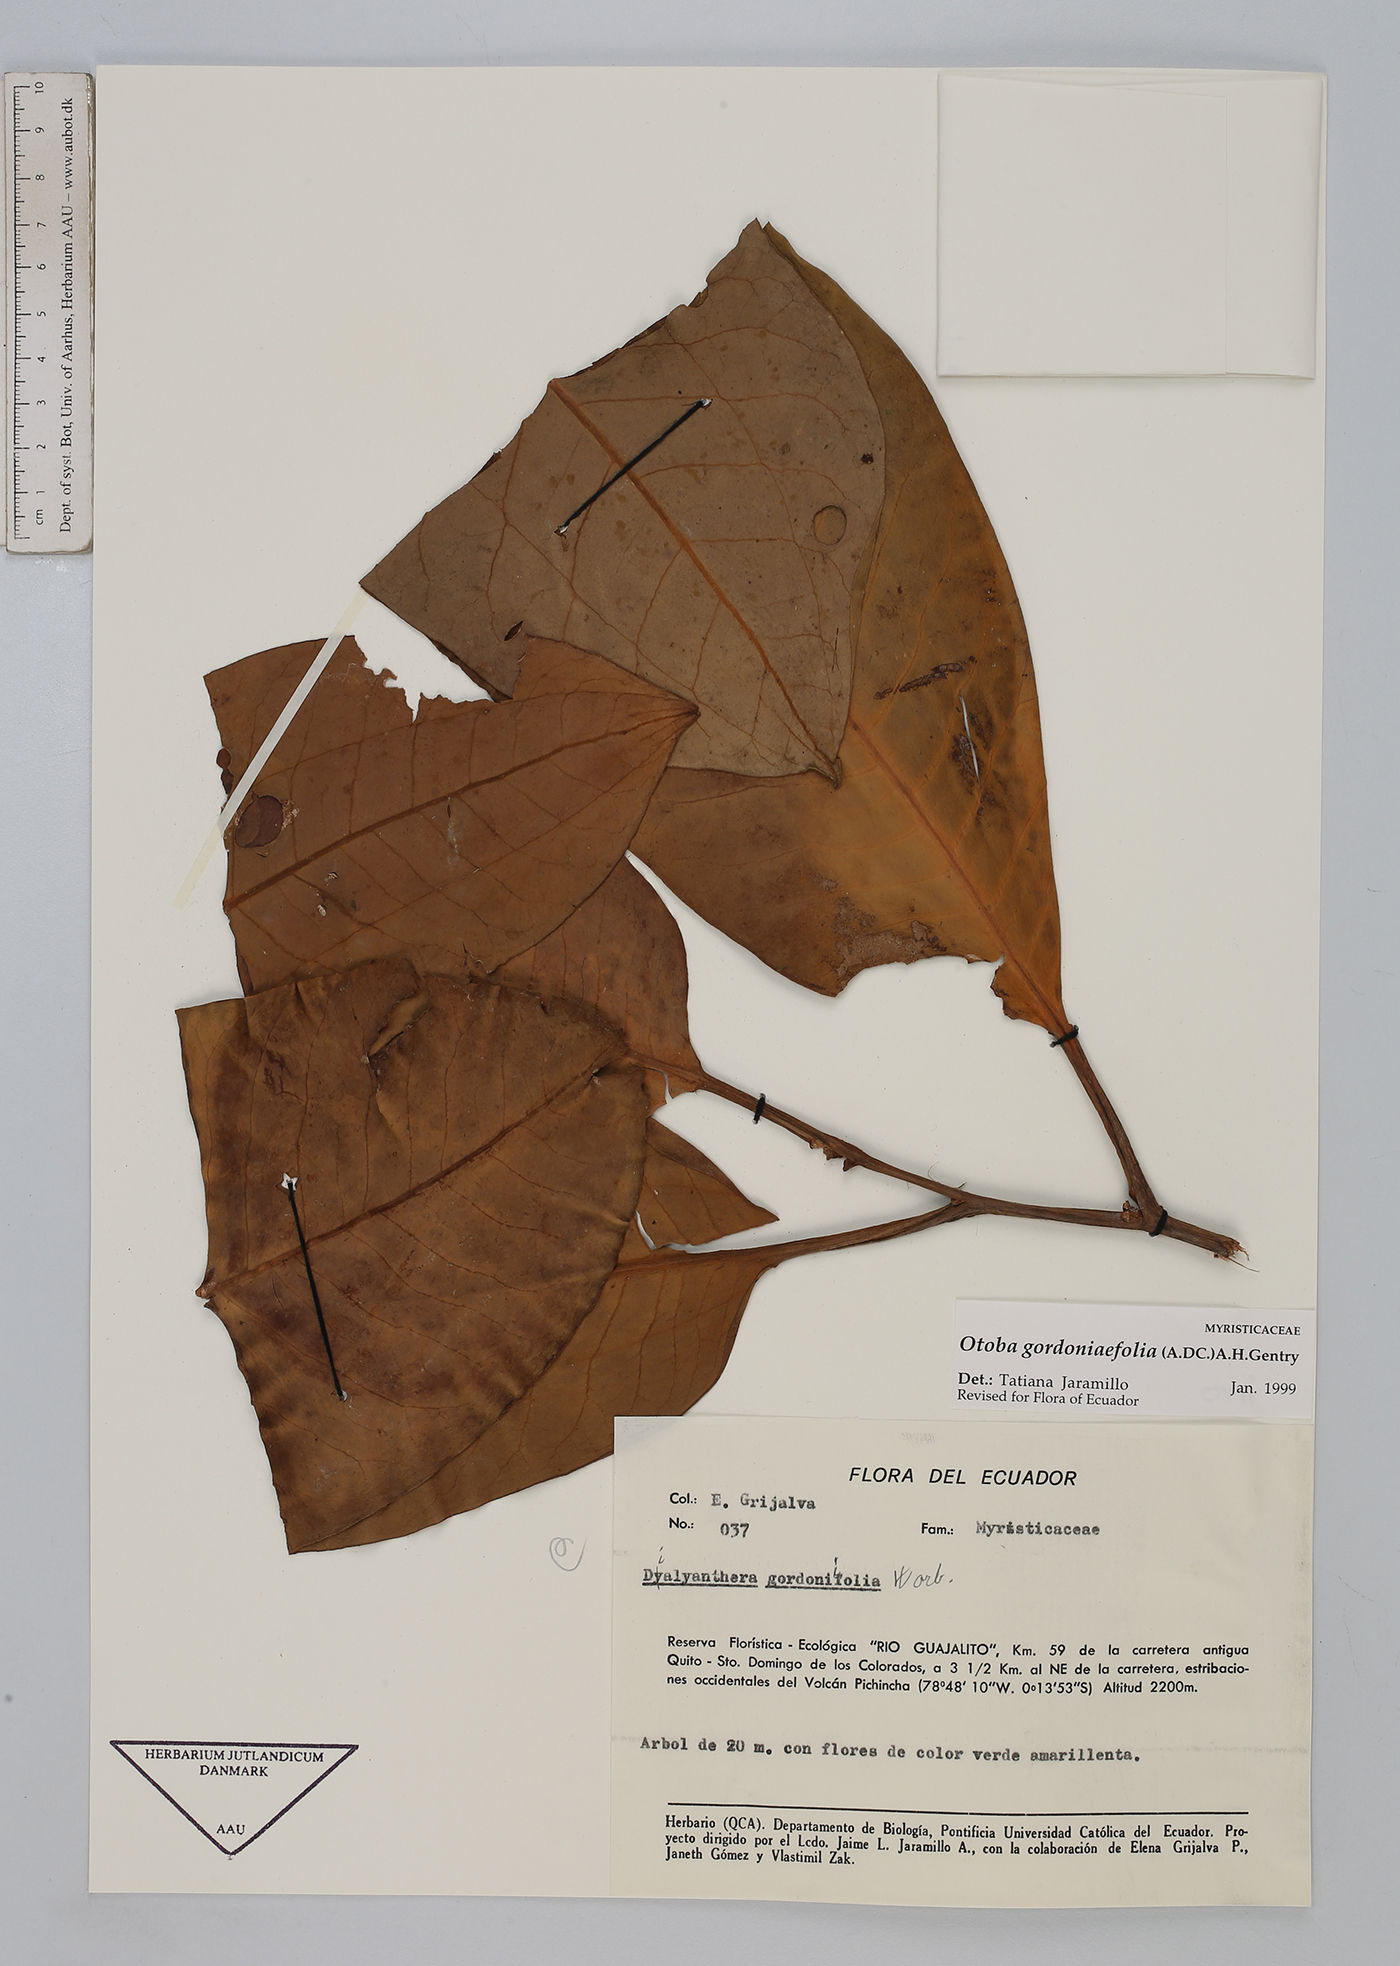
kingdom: Plantae
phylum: Tracheophyta
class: Magnoliopsida
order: Magnoliales
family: Myristicaceae
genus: Otoba
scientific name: Otoba gordoniifolia
